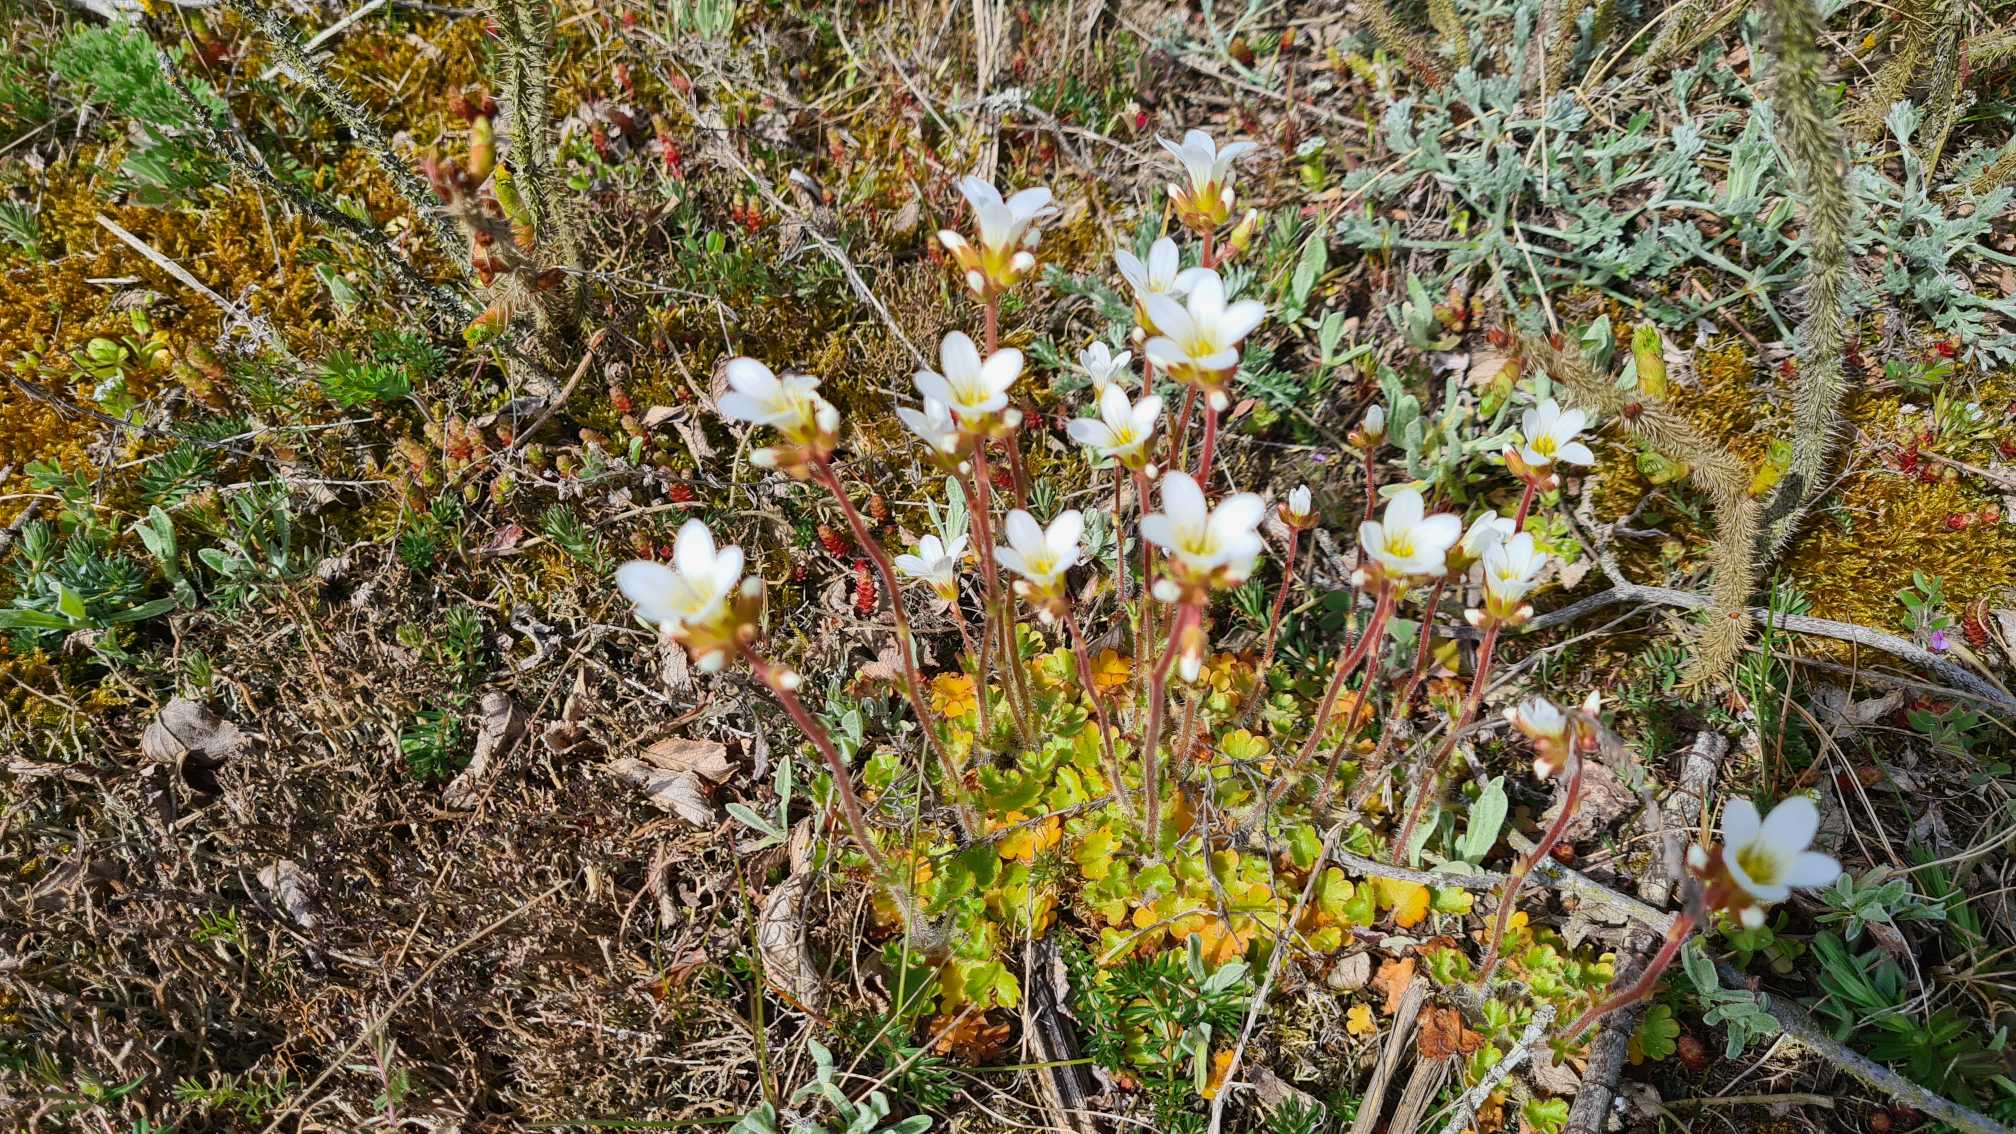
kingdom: Plantae
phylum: Tracheophyta
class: Magnoliopsida
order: Saxifragales
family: Saxifragaceae
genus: Saxifraga
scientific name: Saxifraga granulata
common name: Kornet stenbræk
